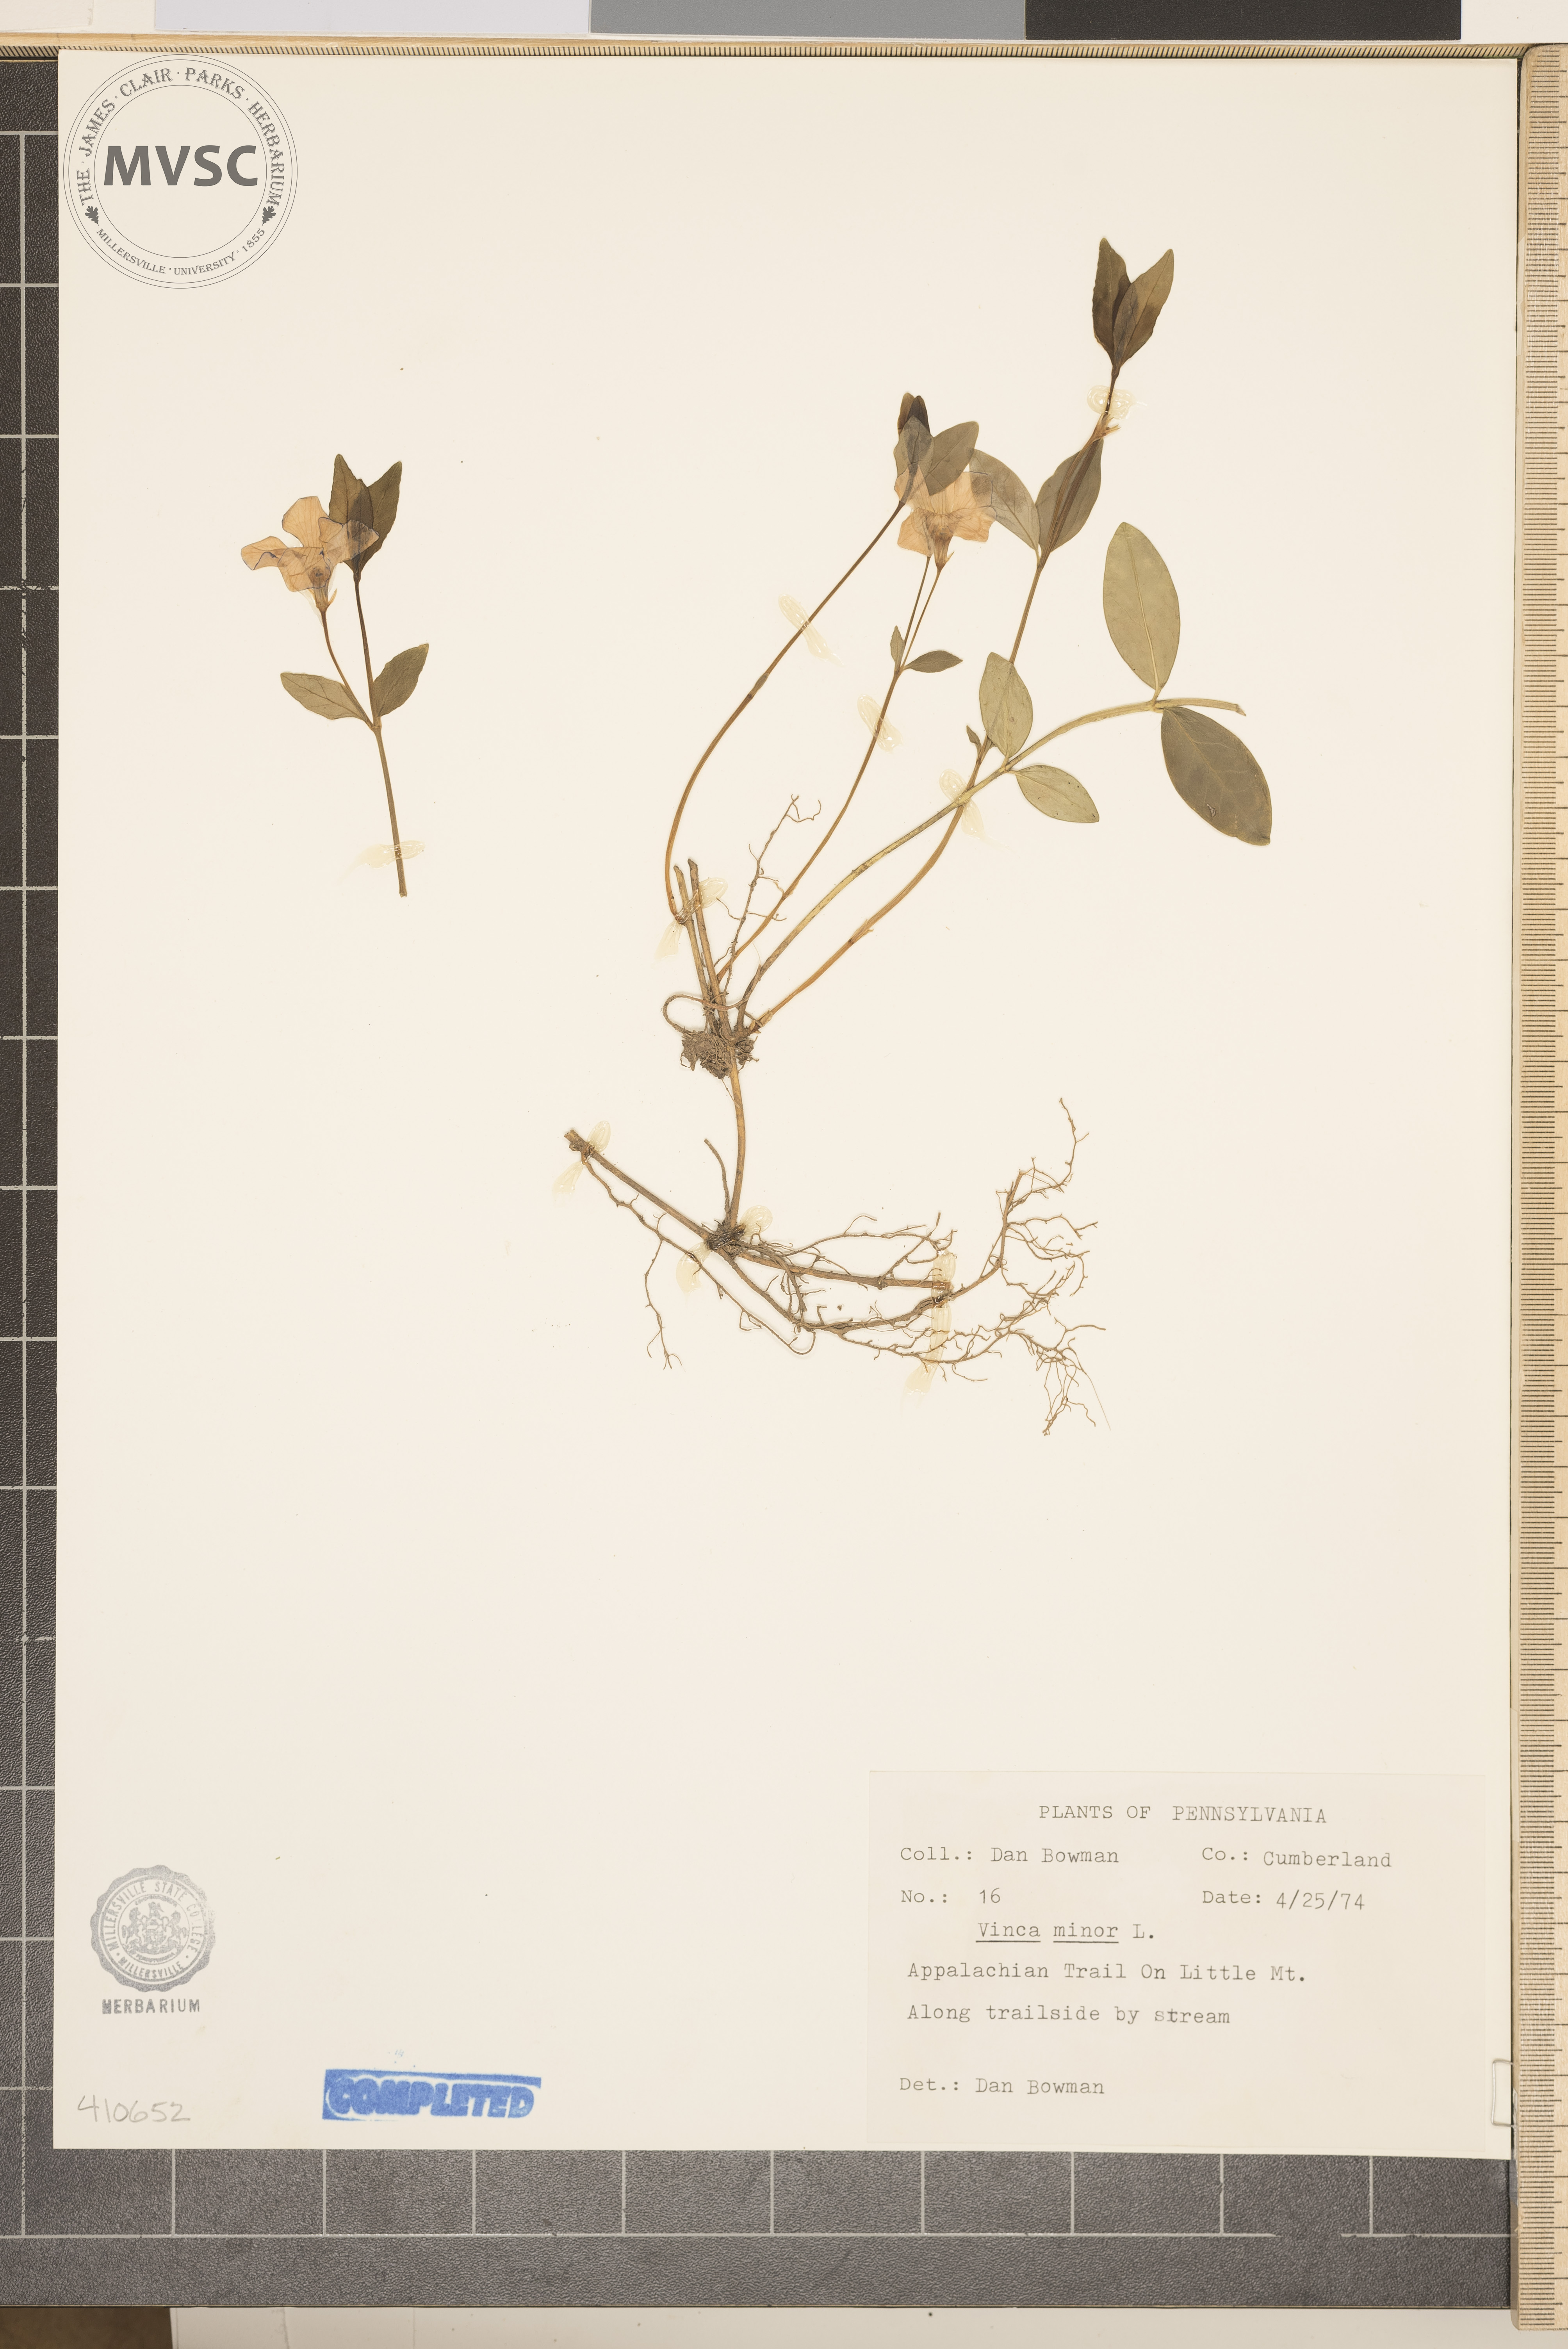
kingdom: Plantae
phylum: Tracheophyta
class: Magnoliopsida
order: Gentianales
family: Apocynaceae
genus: Vinca
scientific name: Vinca minor
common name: Lesser periwinkle
